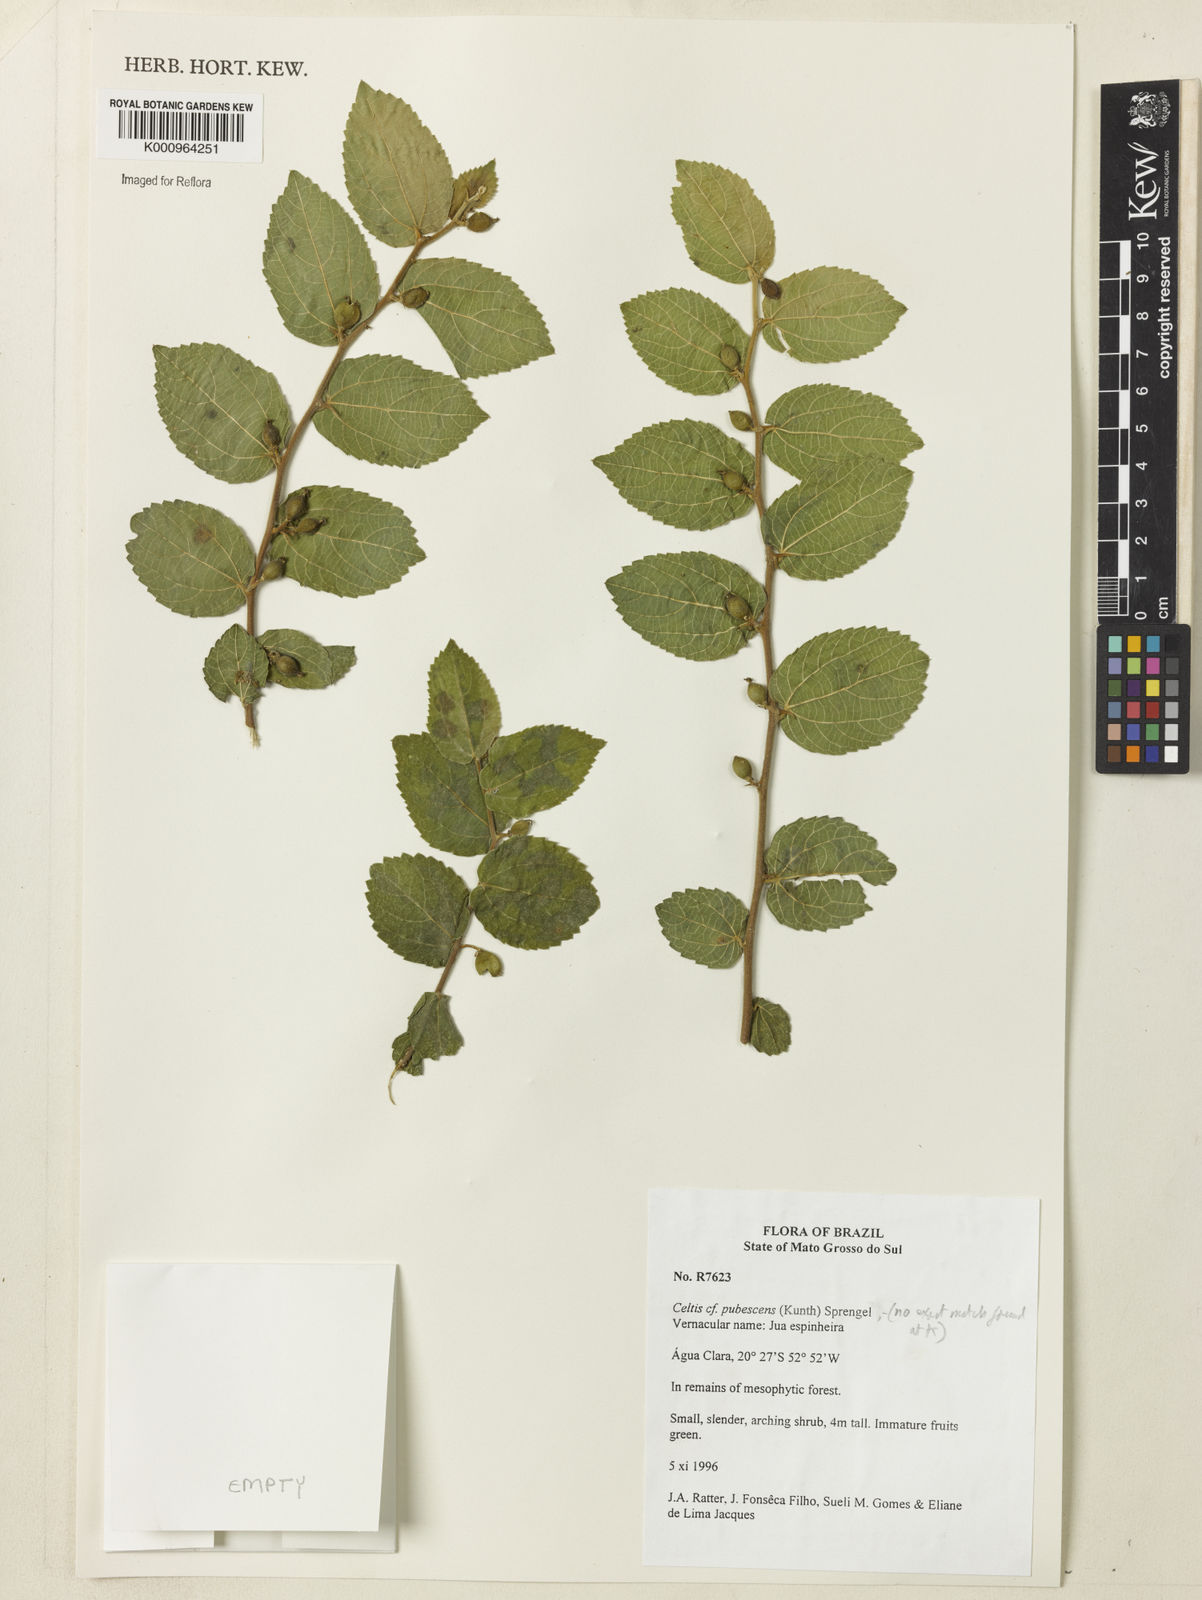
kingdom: Plantae
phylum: Tracheophyta
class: Magnoliopsida
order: Rosales
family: Cannabaceae
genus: Celtis
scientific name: Celtis iguanaea
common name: Iguana hackberry
